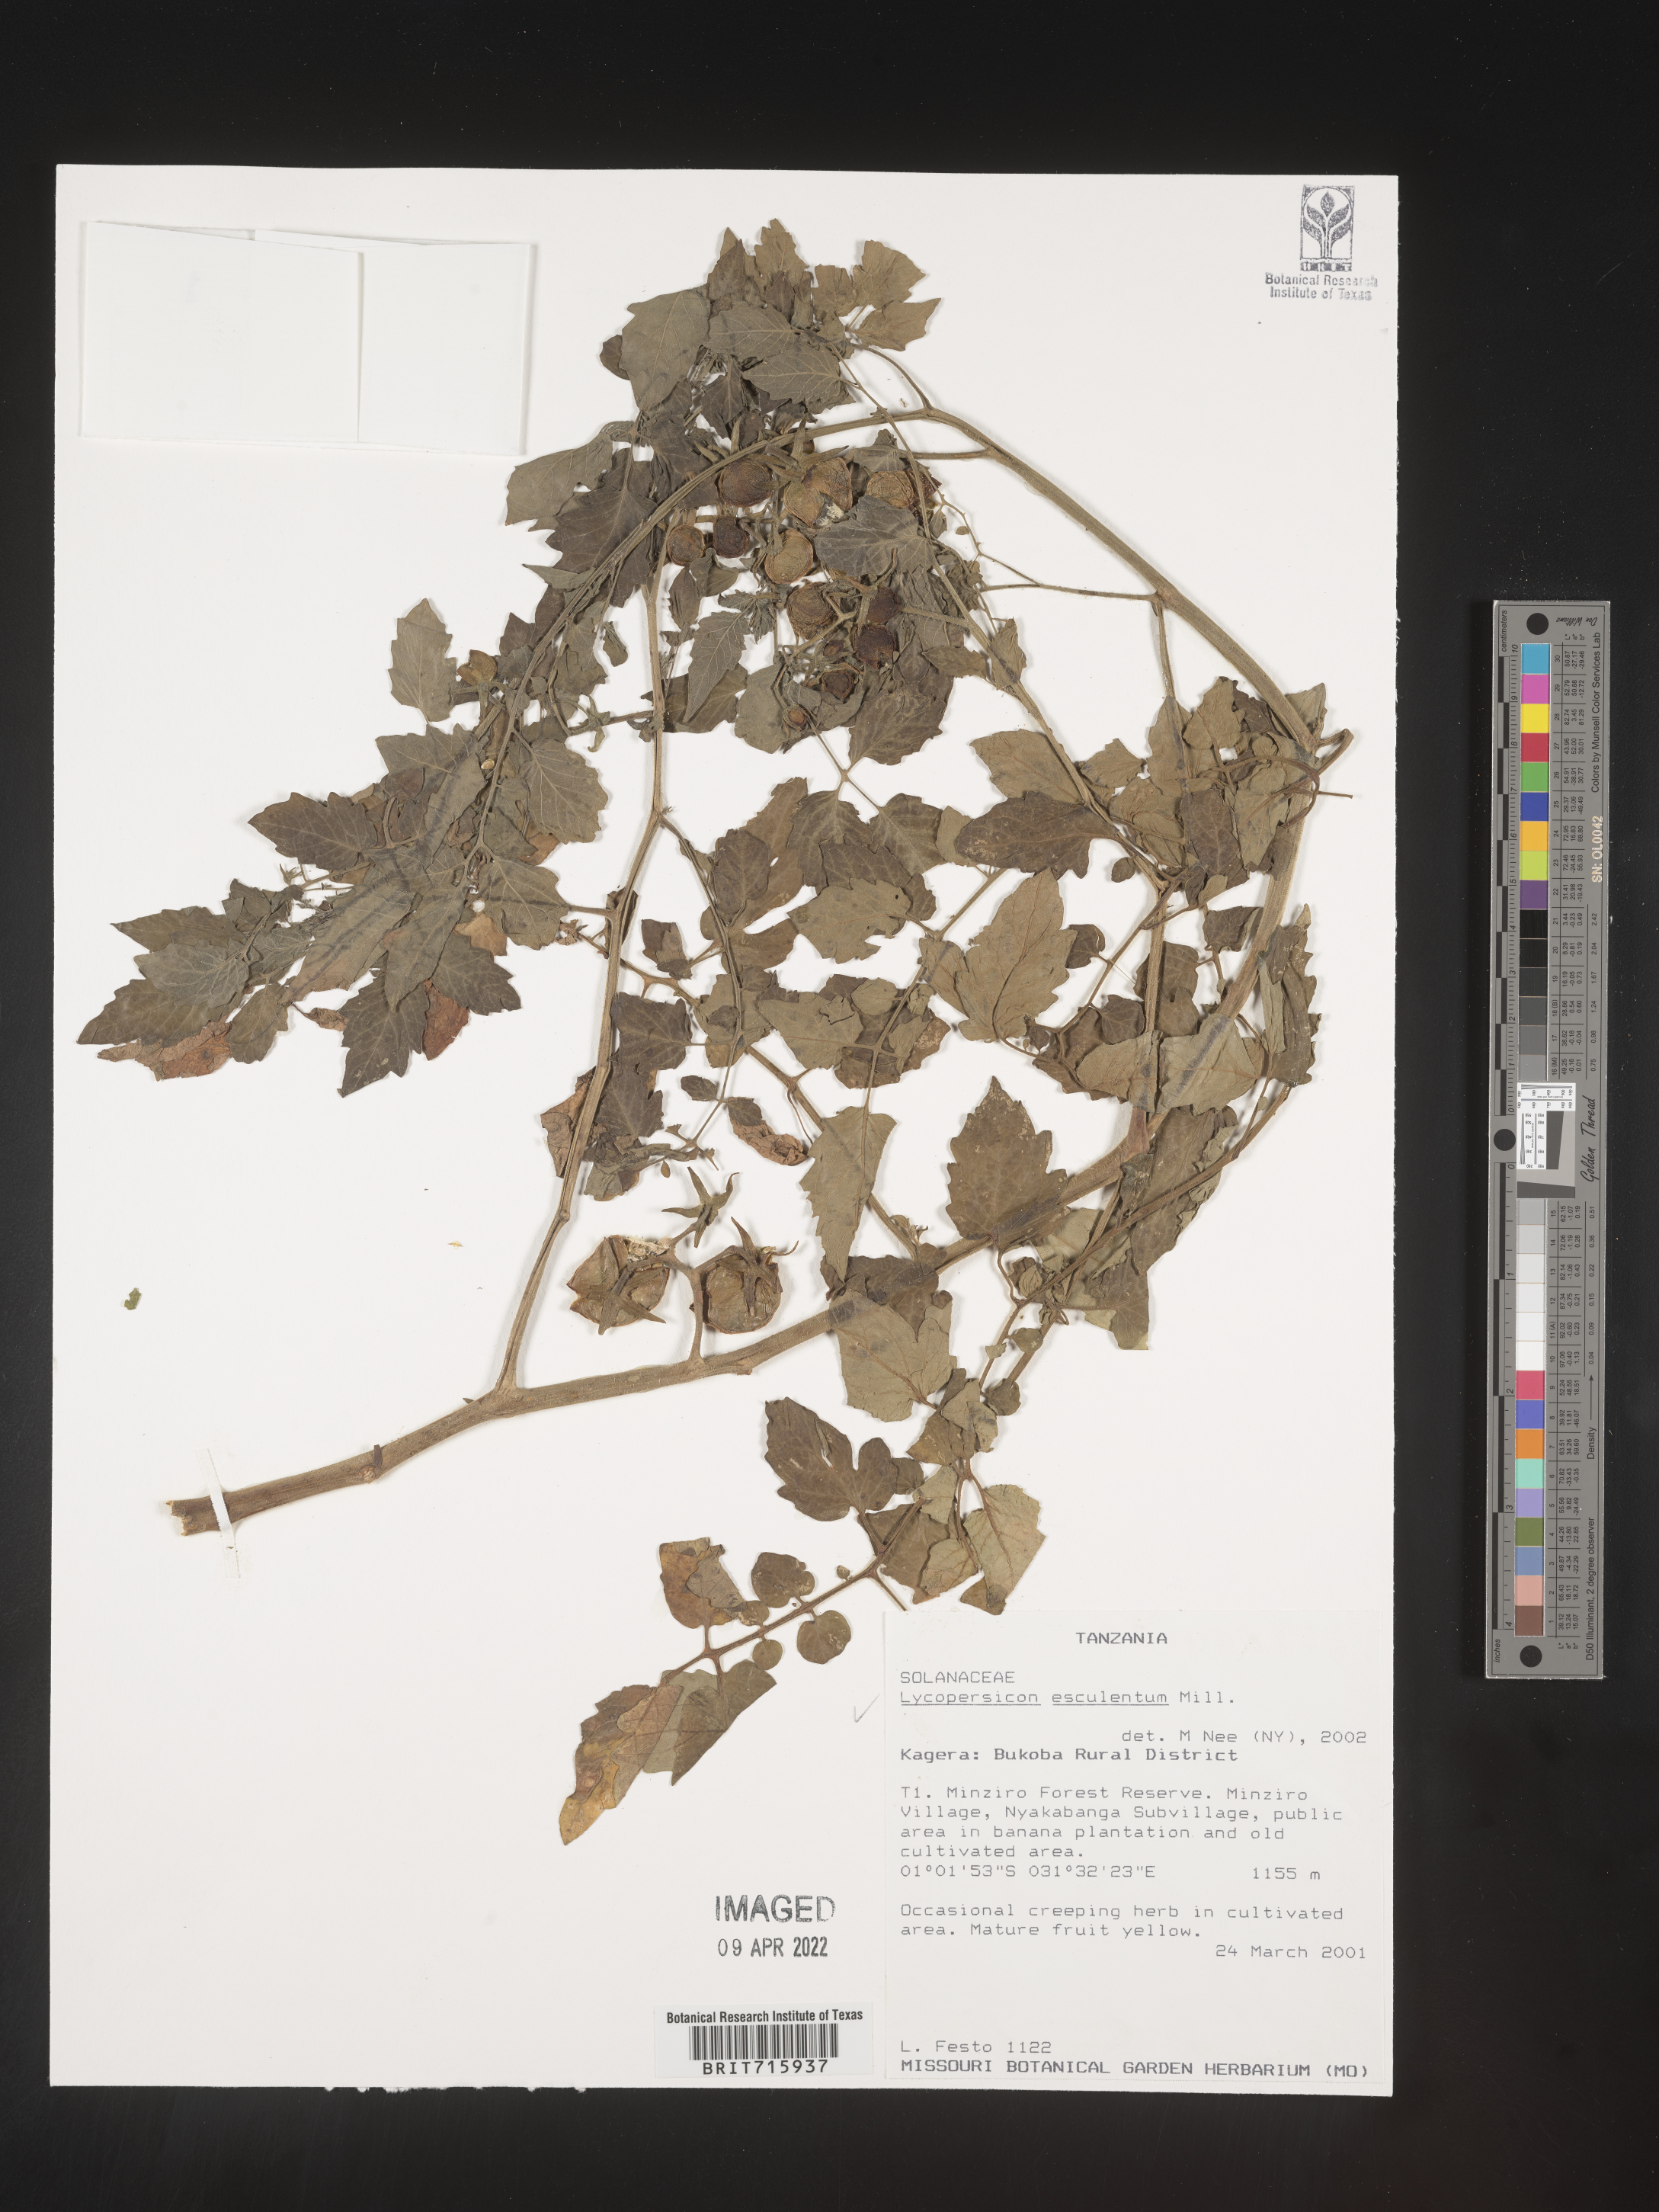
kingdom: Plantae
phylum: Tracheophyta
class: Magnoliopsida
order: Solanales
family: Solanaceae
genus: Solanum
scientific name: Solanum
